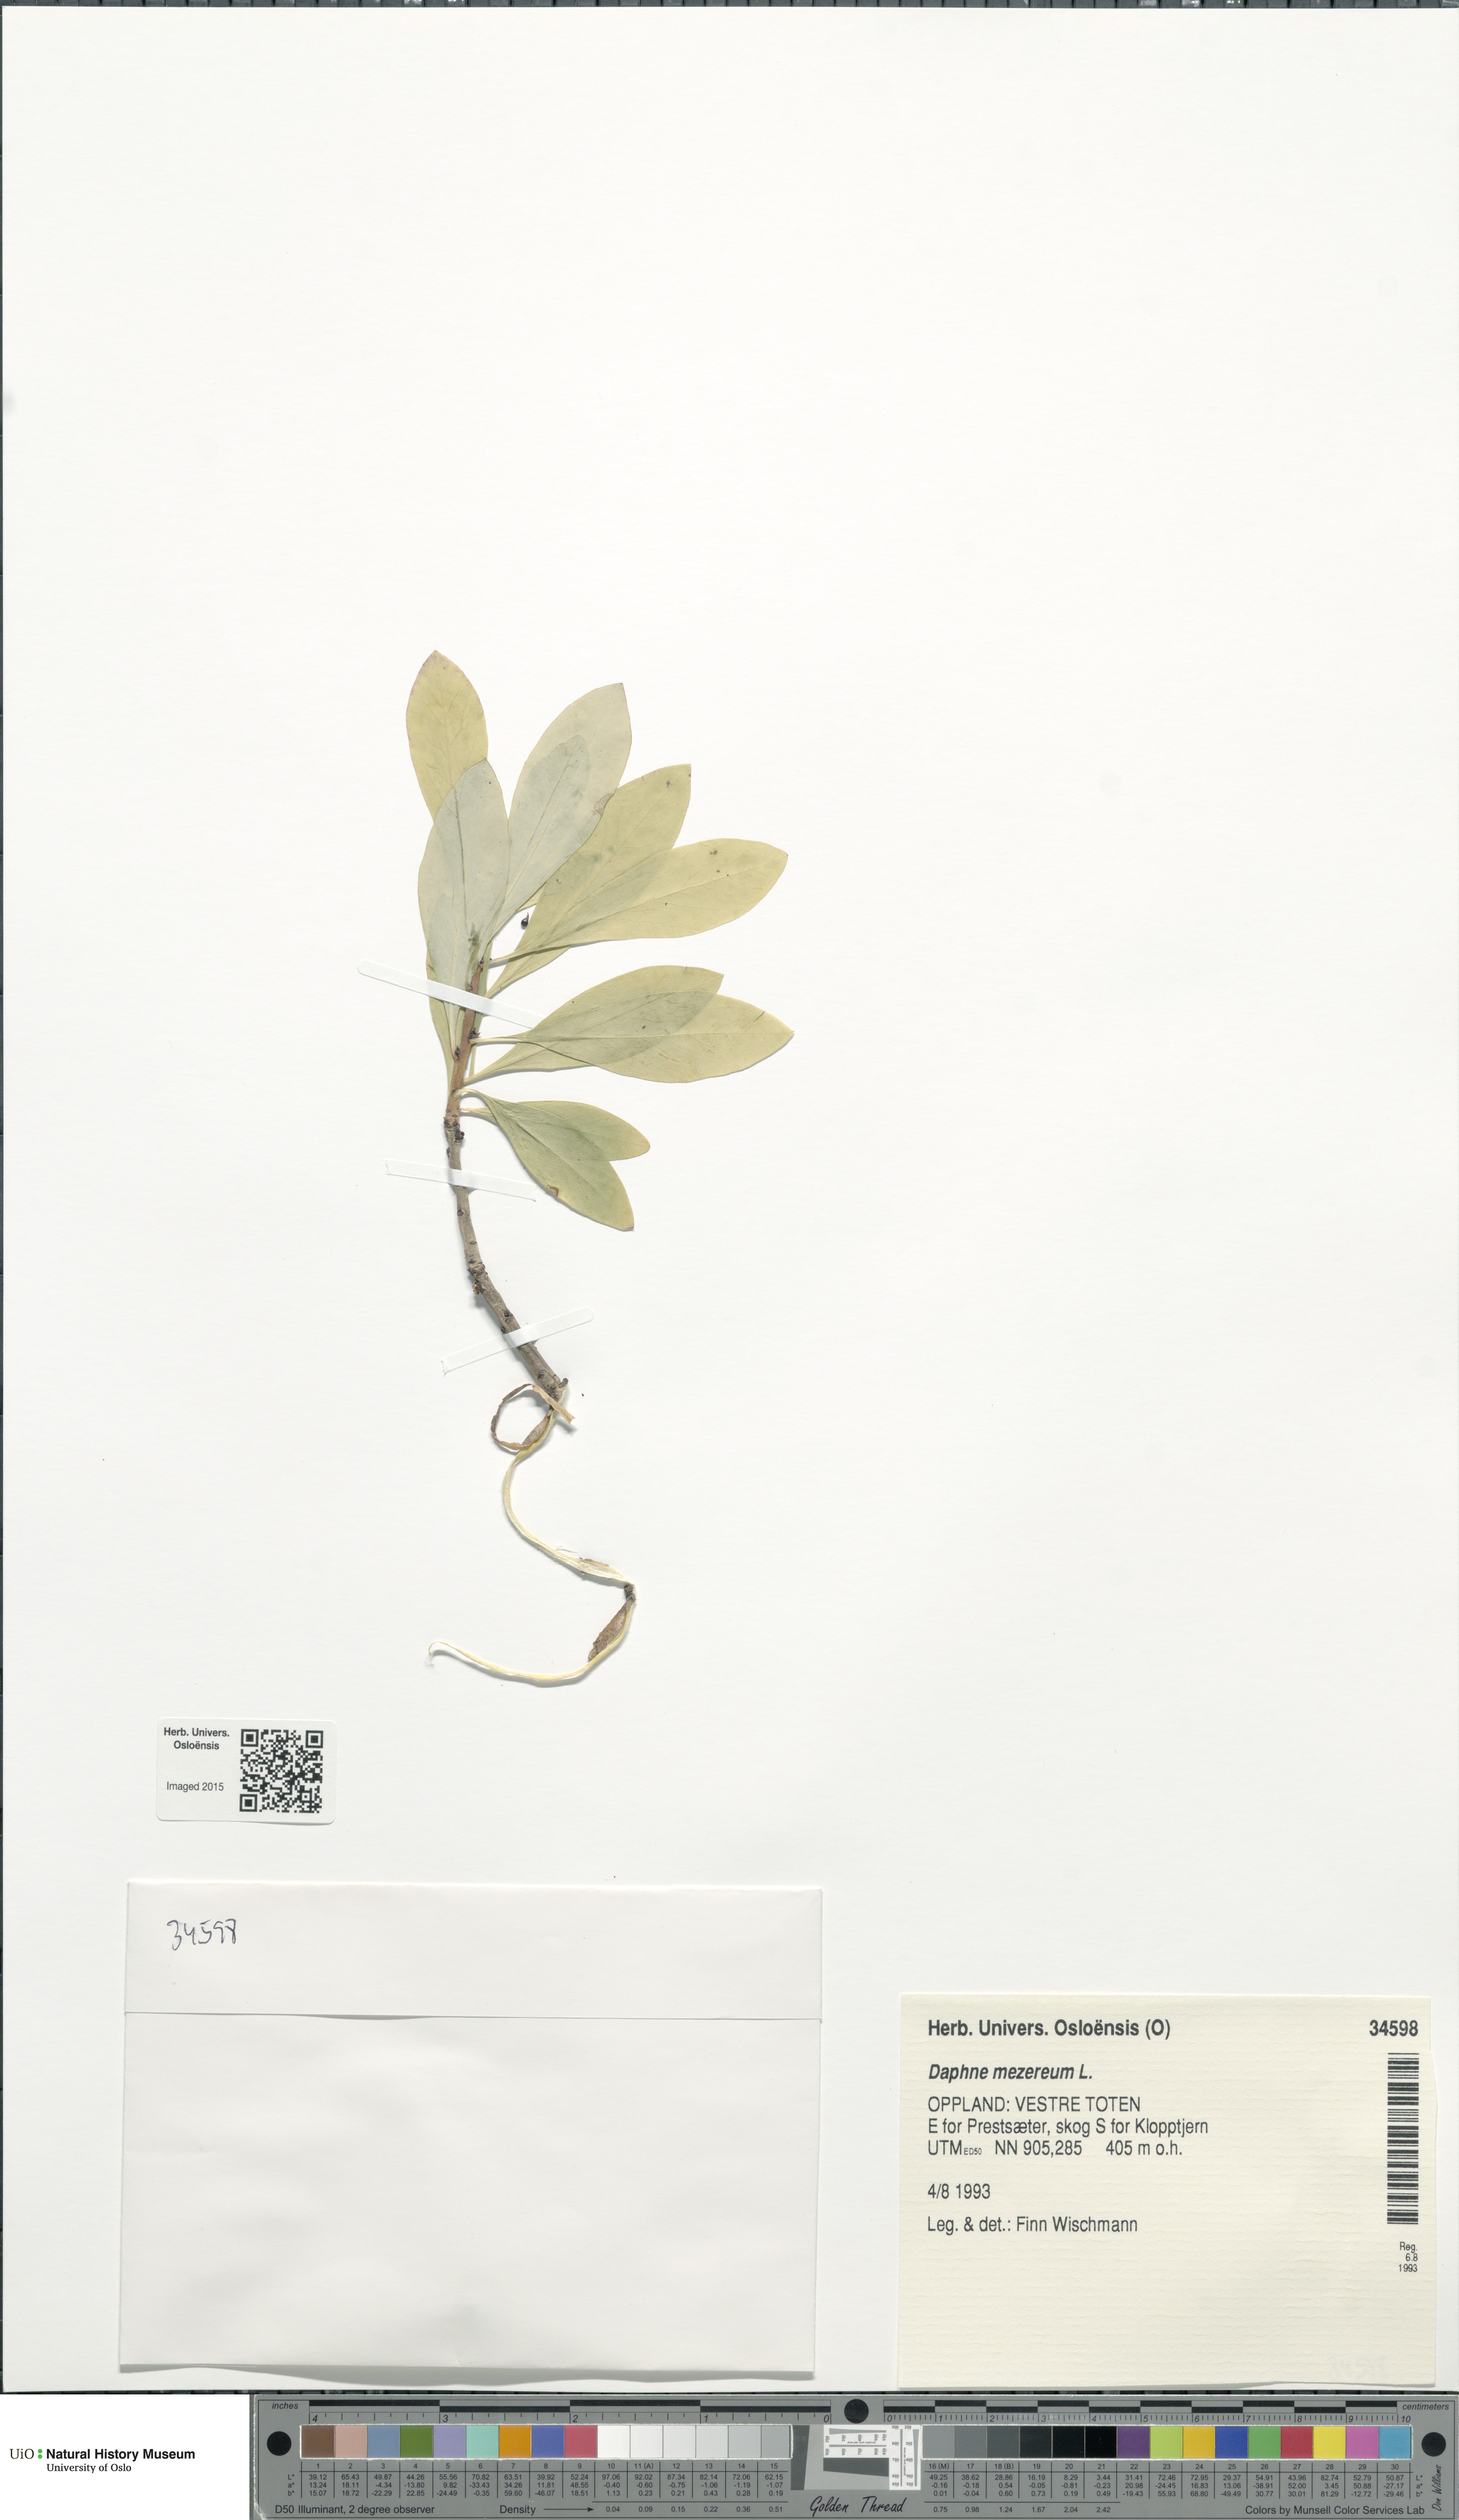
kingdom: Plantae
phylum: Tracheophyta
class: Magnoliopsida
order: Malvales
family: Thymelaeaceae
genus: Daphne
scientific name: Daphne mezereum
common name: Mezereon
